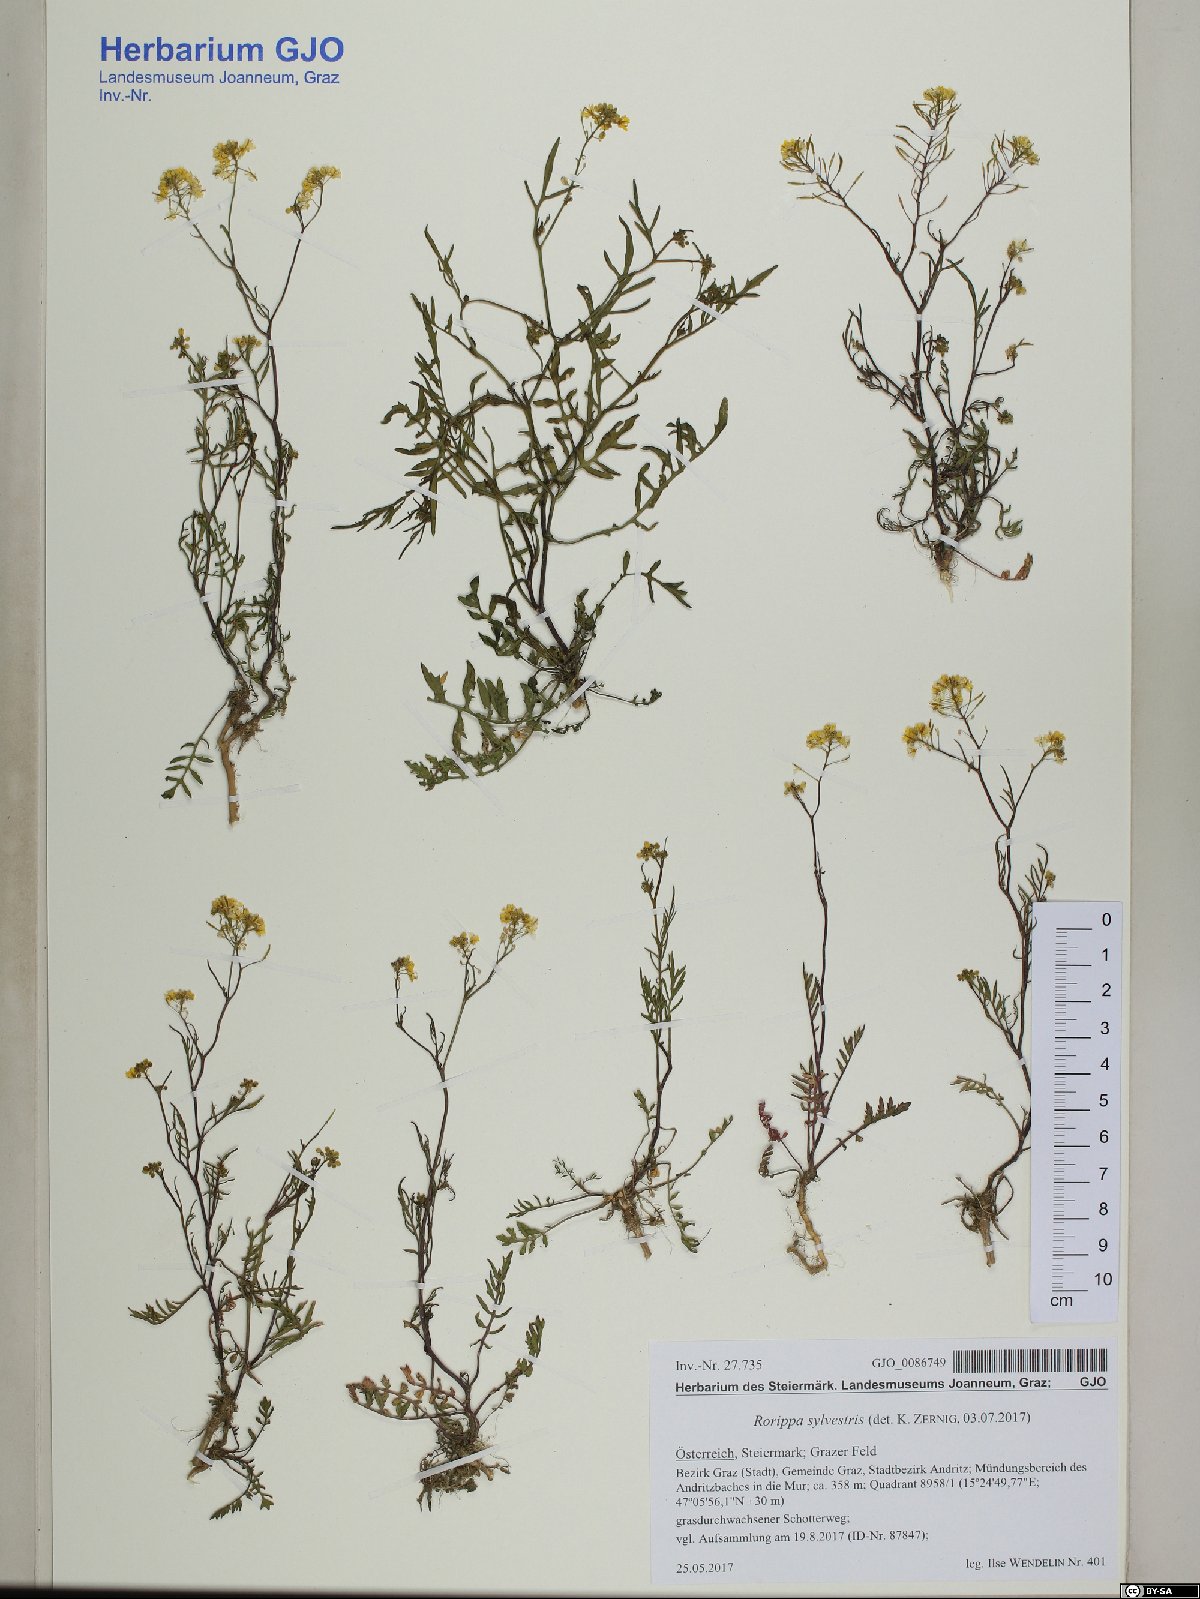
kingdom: Plantae
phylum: Tracheophyta
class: Magnoliopsida
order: Brassicales
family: Brassicaceae
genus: Rorippa
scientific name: Rorippa sylvestris
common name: Creeping yellowcress
